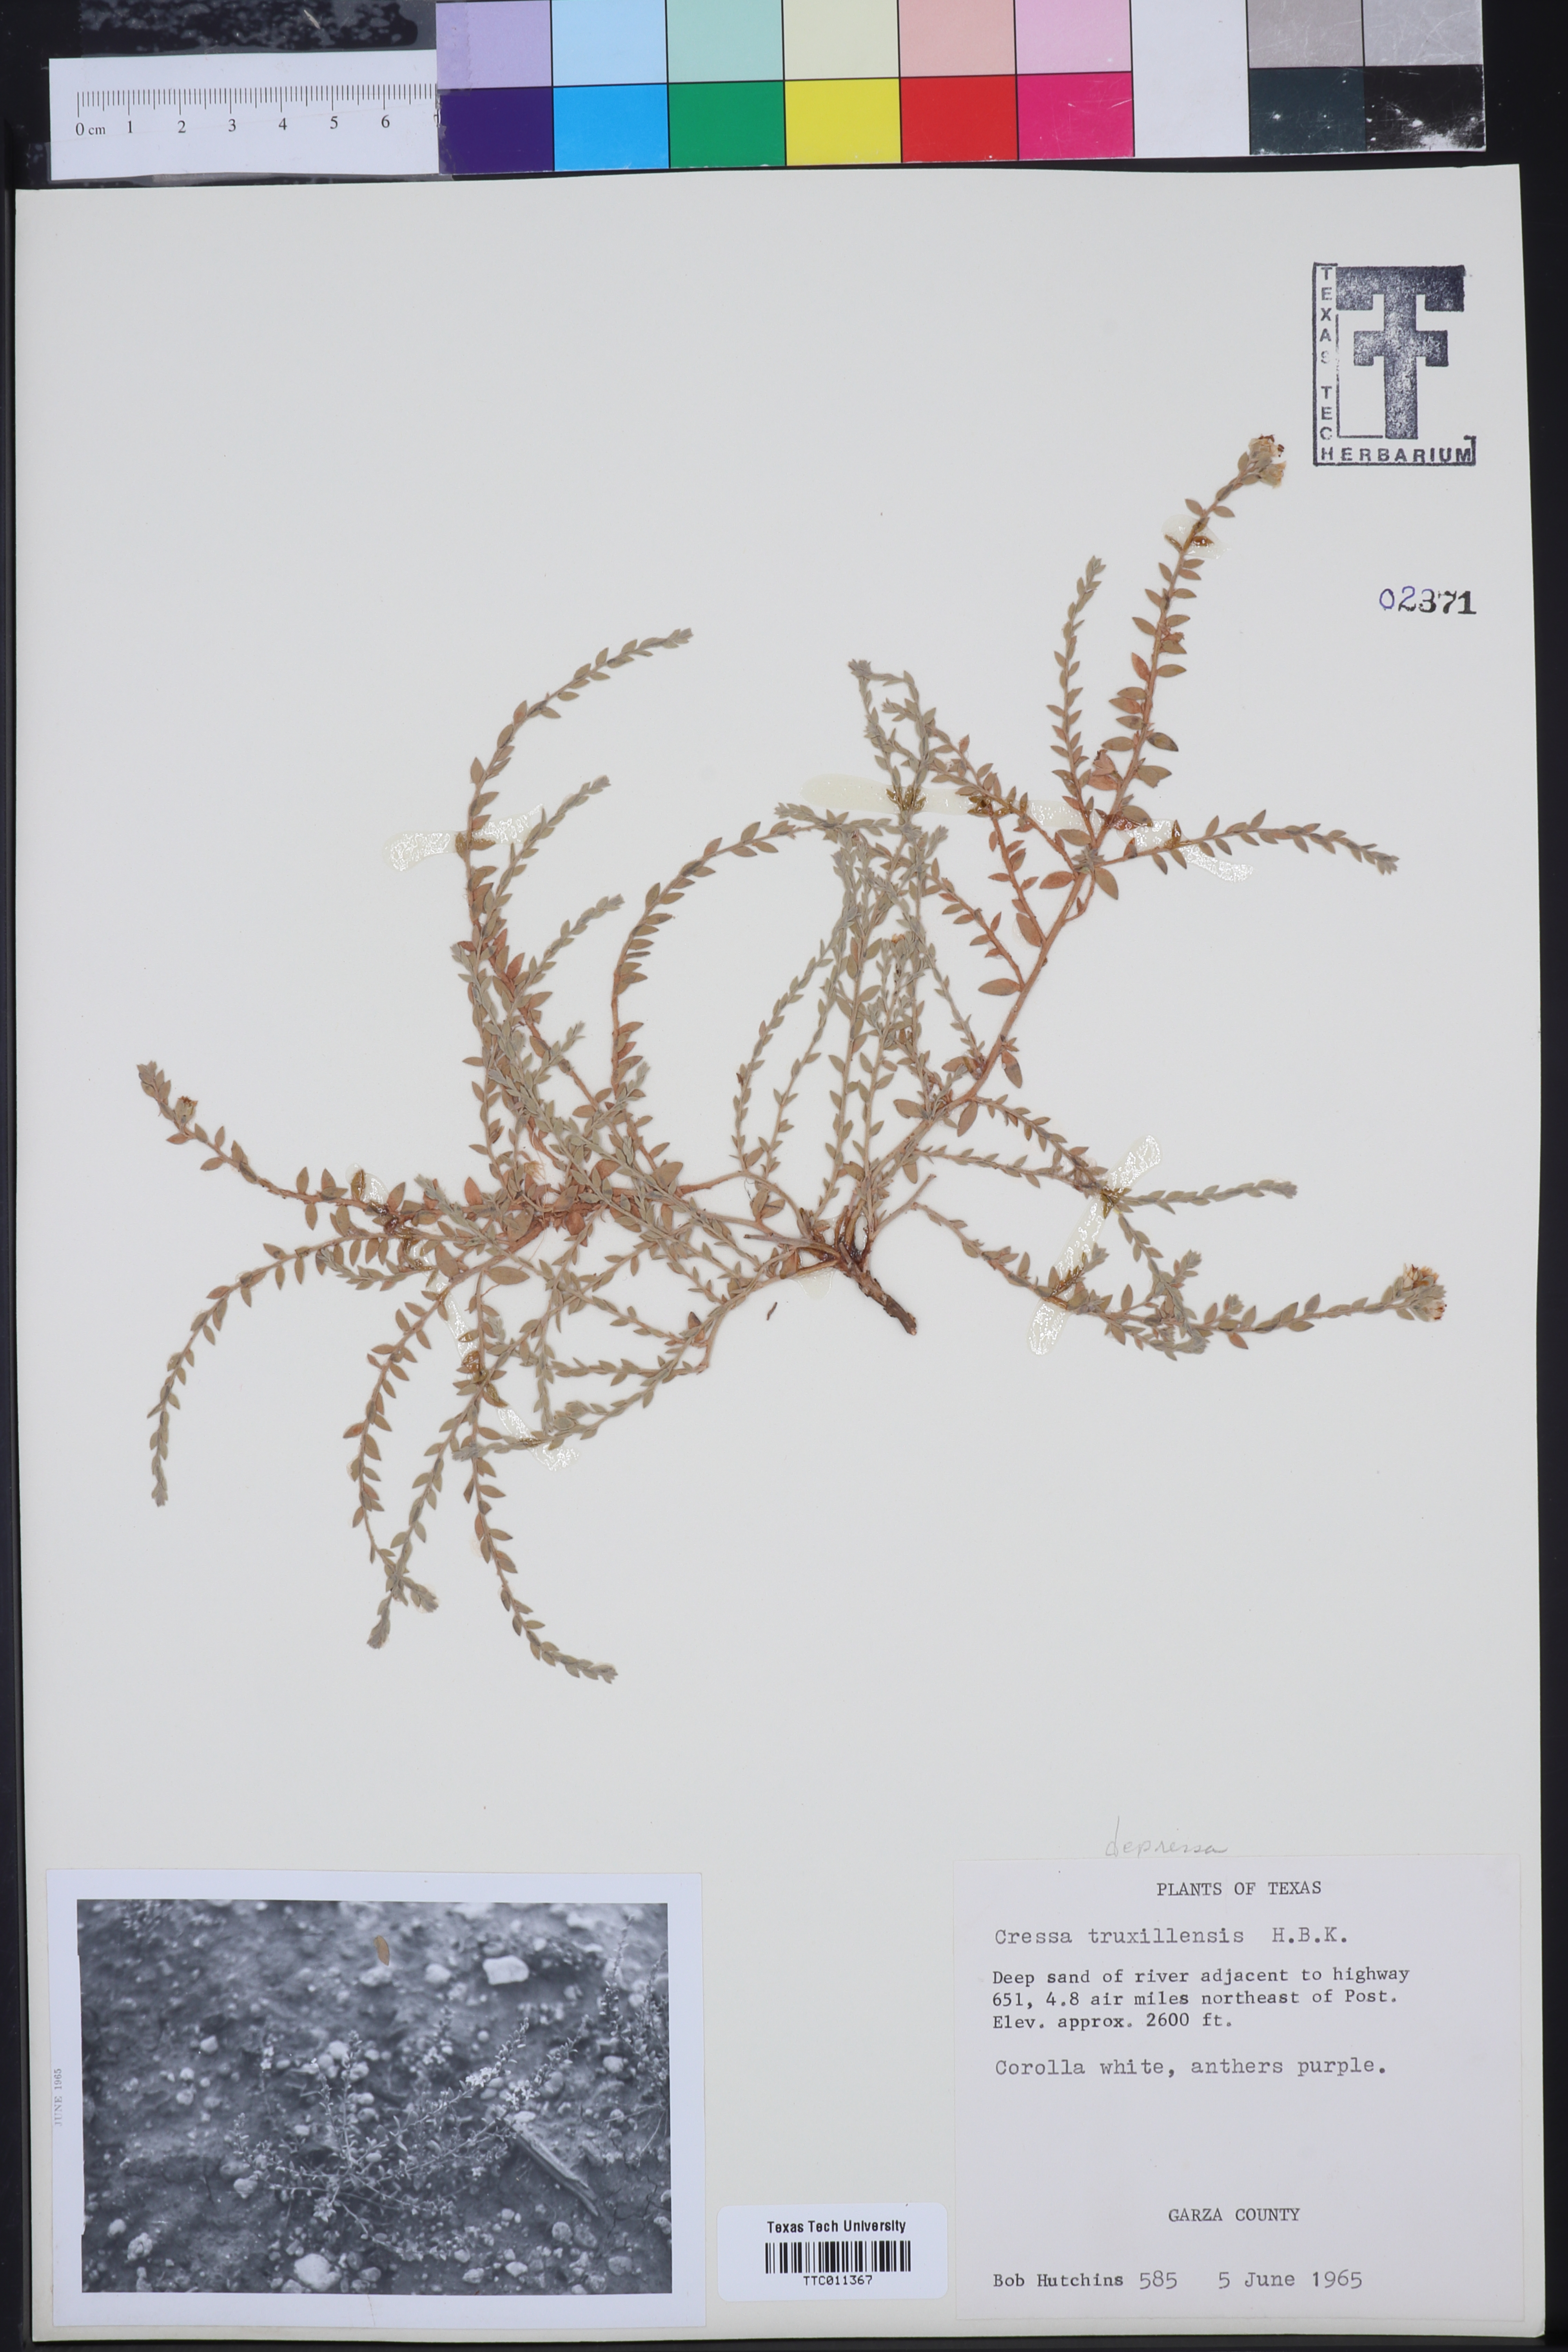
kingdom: Plantae
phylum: Tracheophyta
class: Magnoliopsida
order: Solanales
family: Convolvulaceae
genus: Cressa
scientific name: Cressa truxillensis
